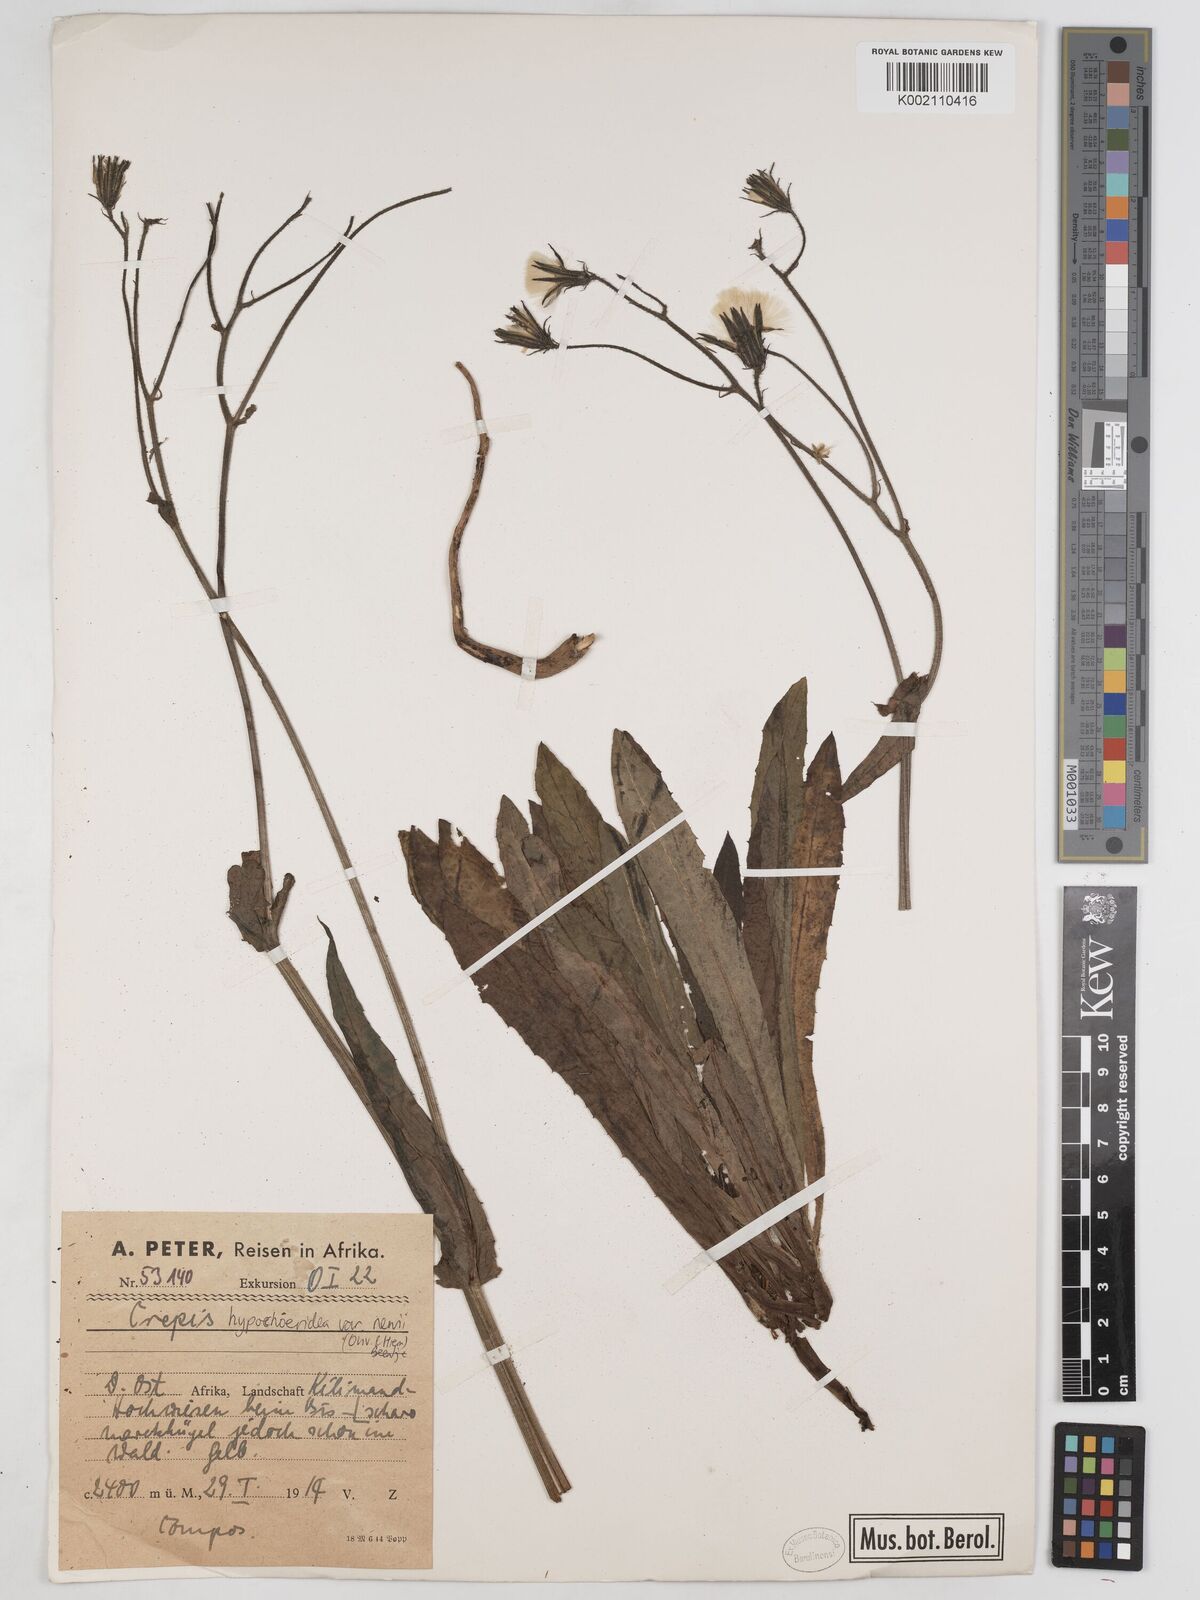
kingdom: Plantae
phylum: Tracheophyta
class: Magnoliopsida
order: Asterales
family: Asteraceae
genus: Crepis
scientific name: Crepis hypochoeridea
